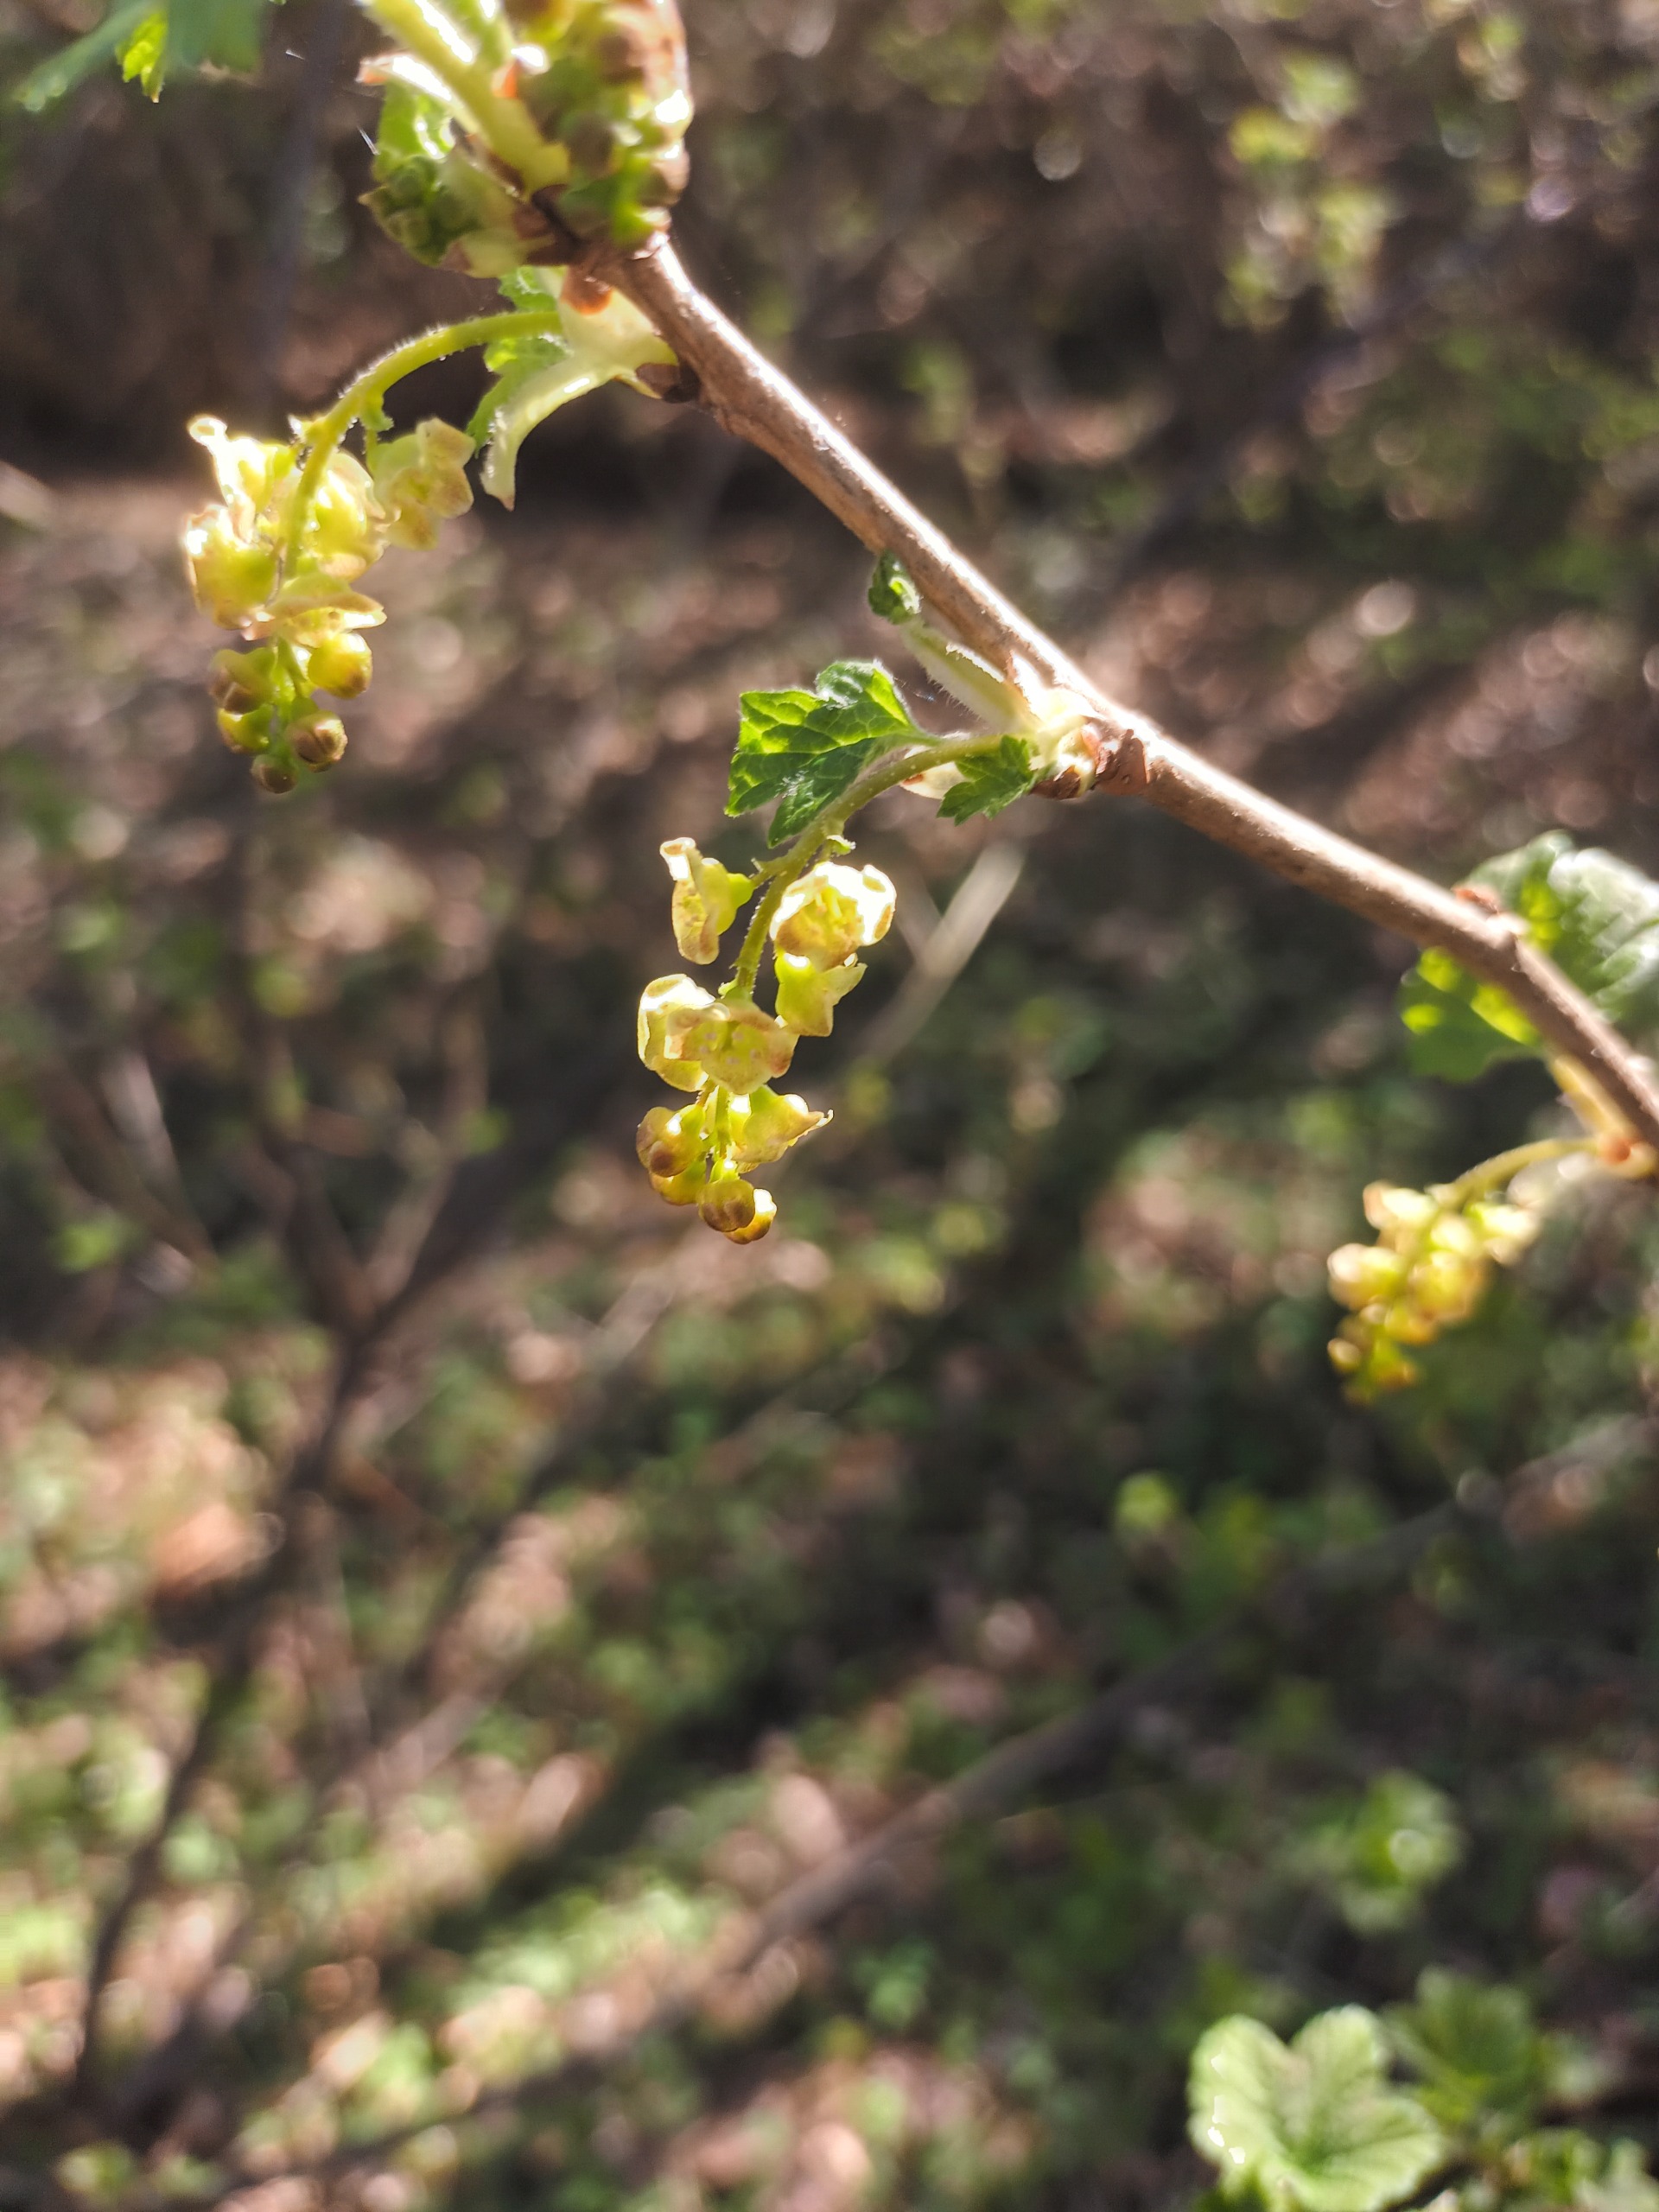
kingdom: Plantae
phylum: Tracheophyta
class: Magnoliopsida
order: Saxifragales
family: Grossulariaceae
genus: Ribes
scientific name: Ribes rubrum
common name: Slots-ribs
